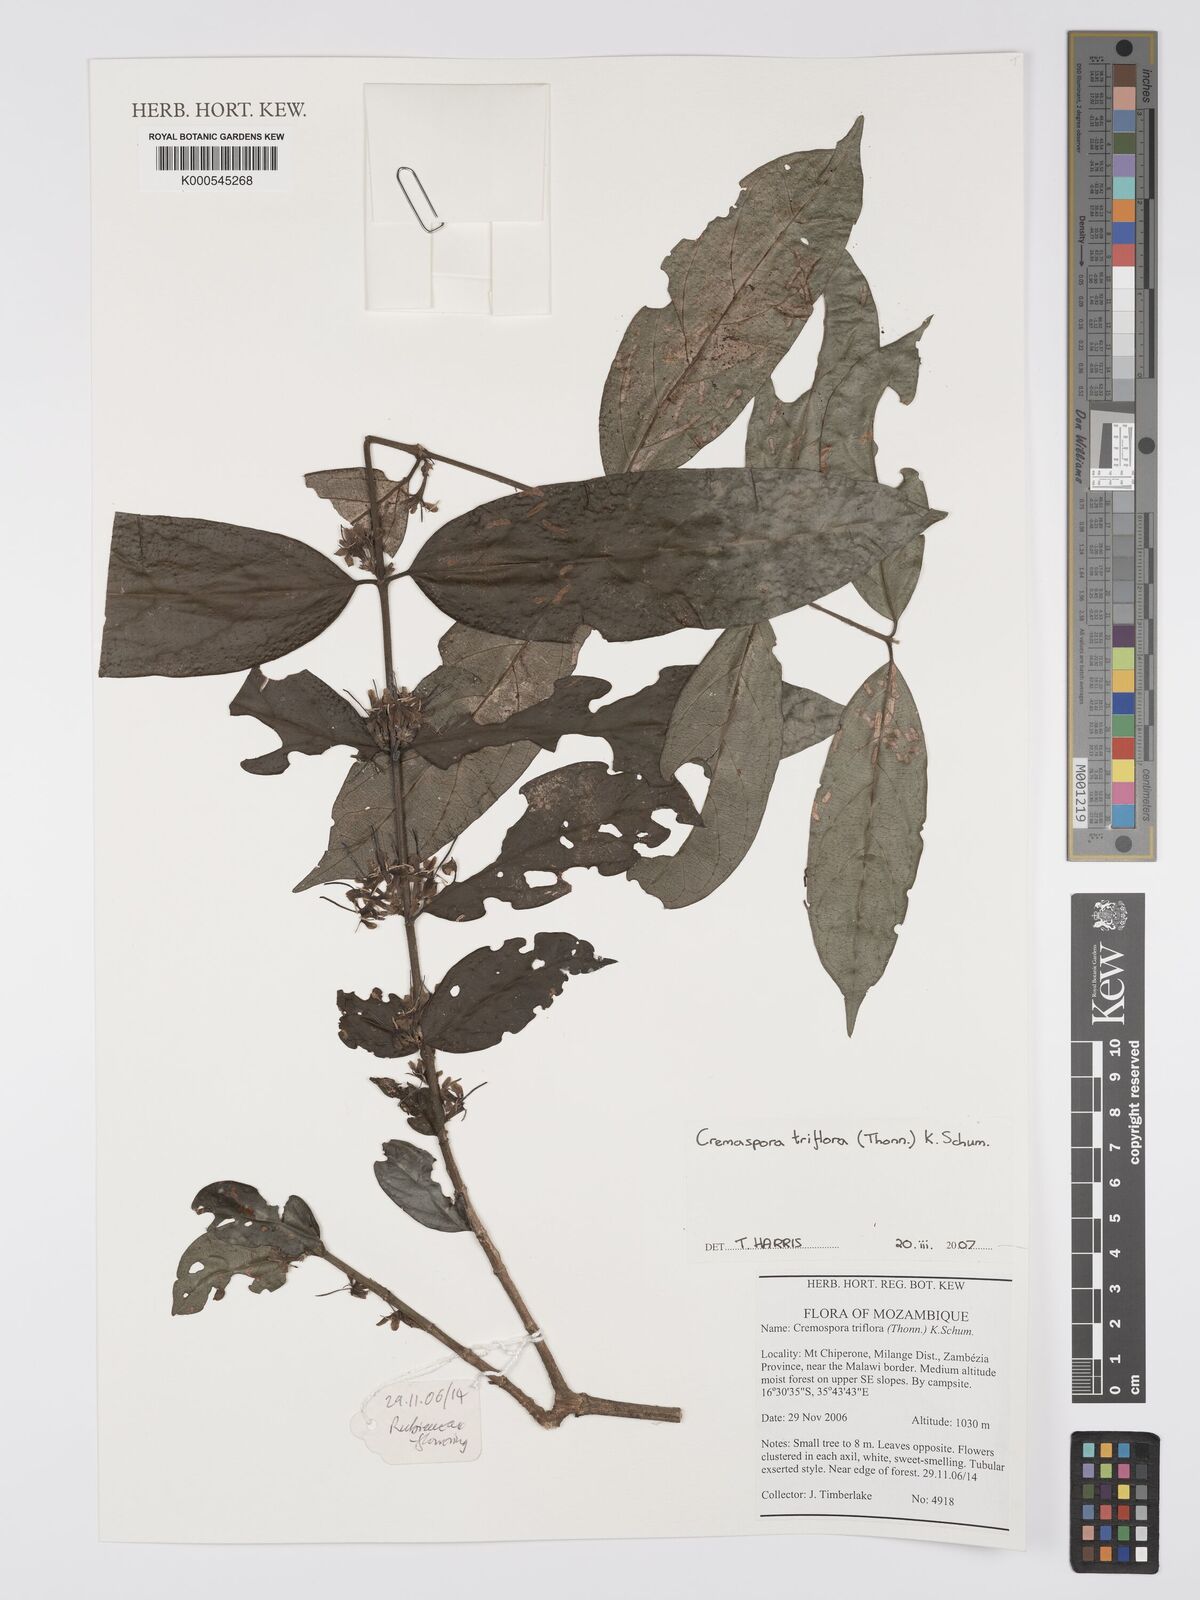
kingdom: Plantae
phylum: Tracheophyta
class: Magnoliopsida
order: Gentianales
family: Rubiaceae
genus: Cremaspora
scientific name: Cremaspora triflora
